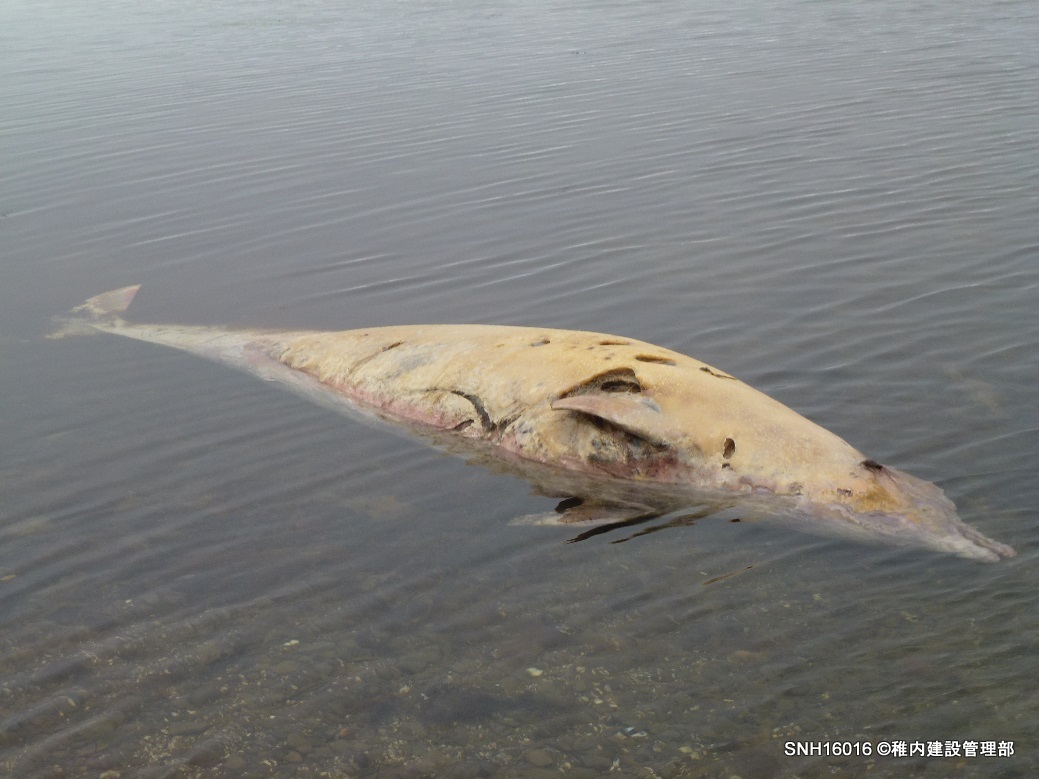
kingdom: Animalia
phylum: Chordata
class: Mammalia
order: Cetacea
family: Hyperoodontidae
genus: Mesoplodon
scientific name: Mesoplodon stejnegeri
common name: Stejneger's beaked whale
